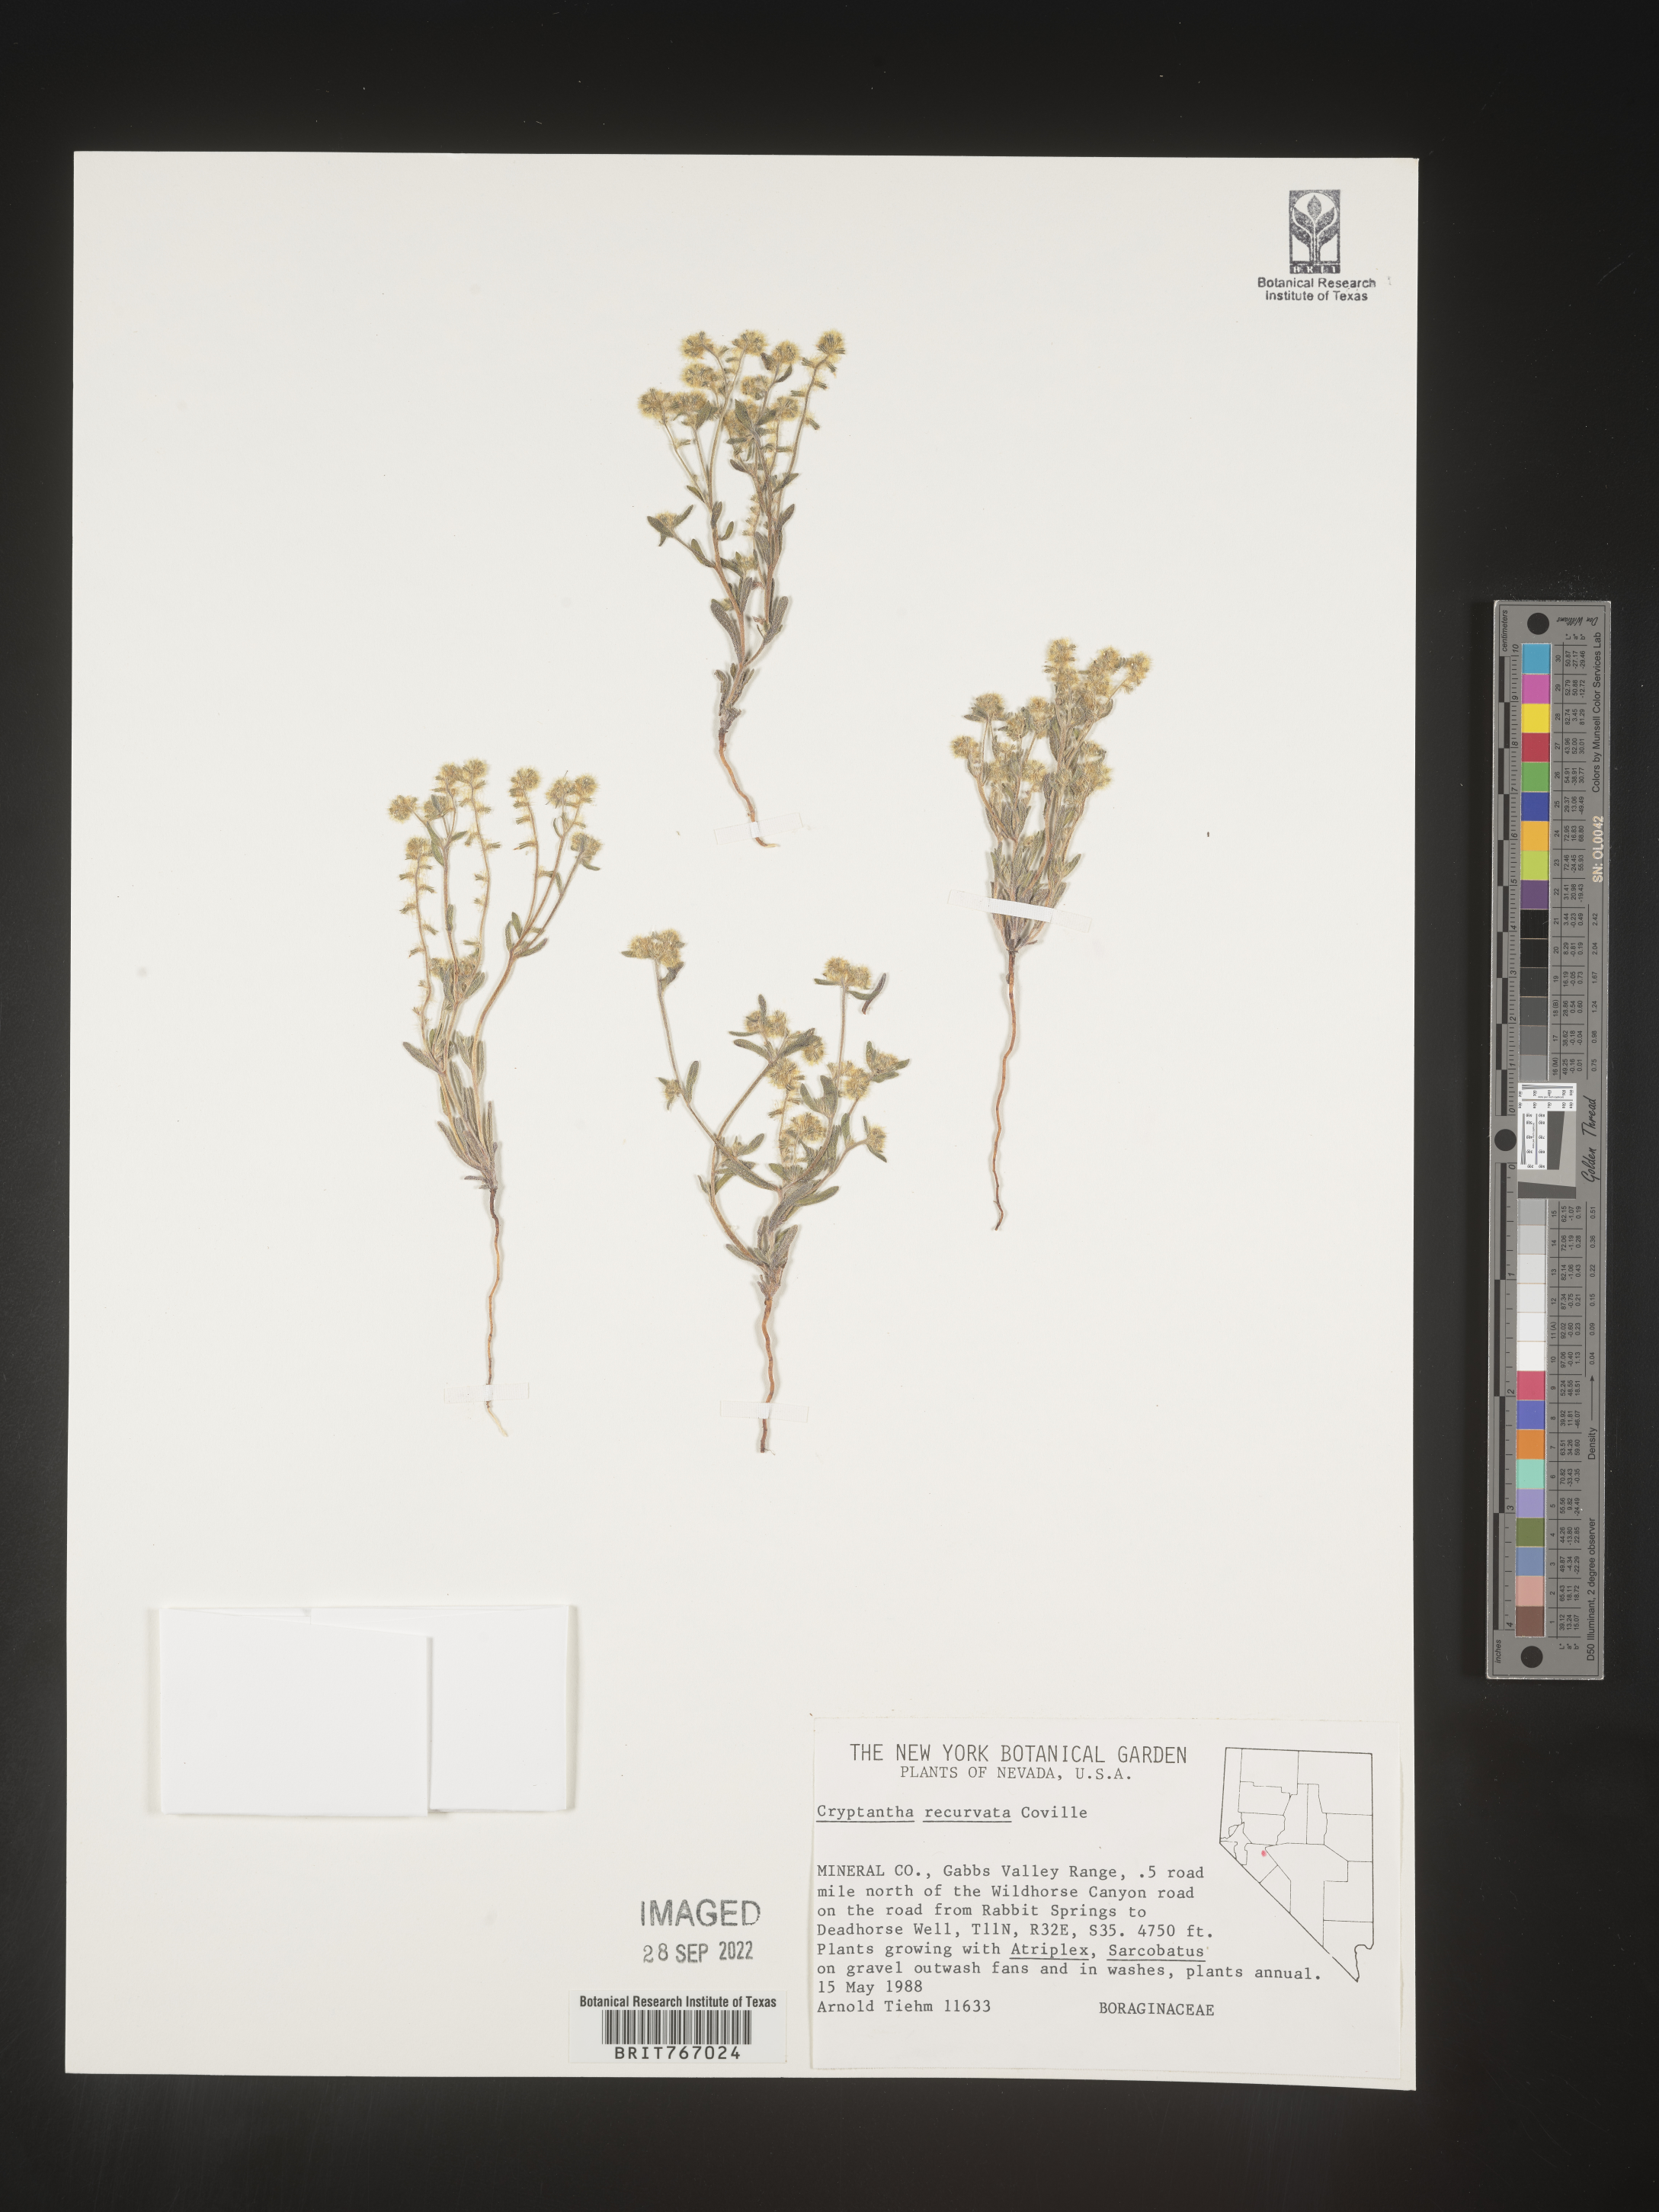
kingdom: Plantae
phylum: Tracheophyta
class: Magnoliopsida
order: Boraginales
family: Boraginaceae
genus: Cryptantha
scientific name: Cryptantha
